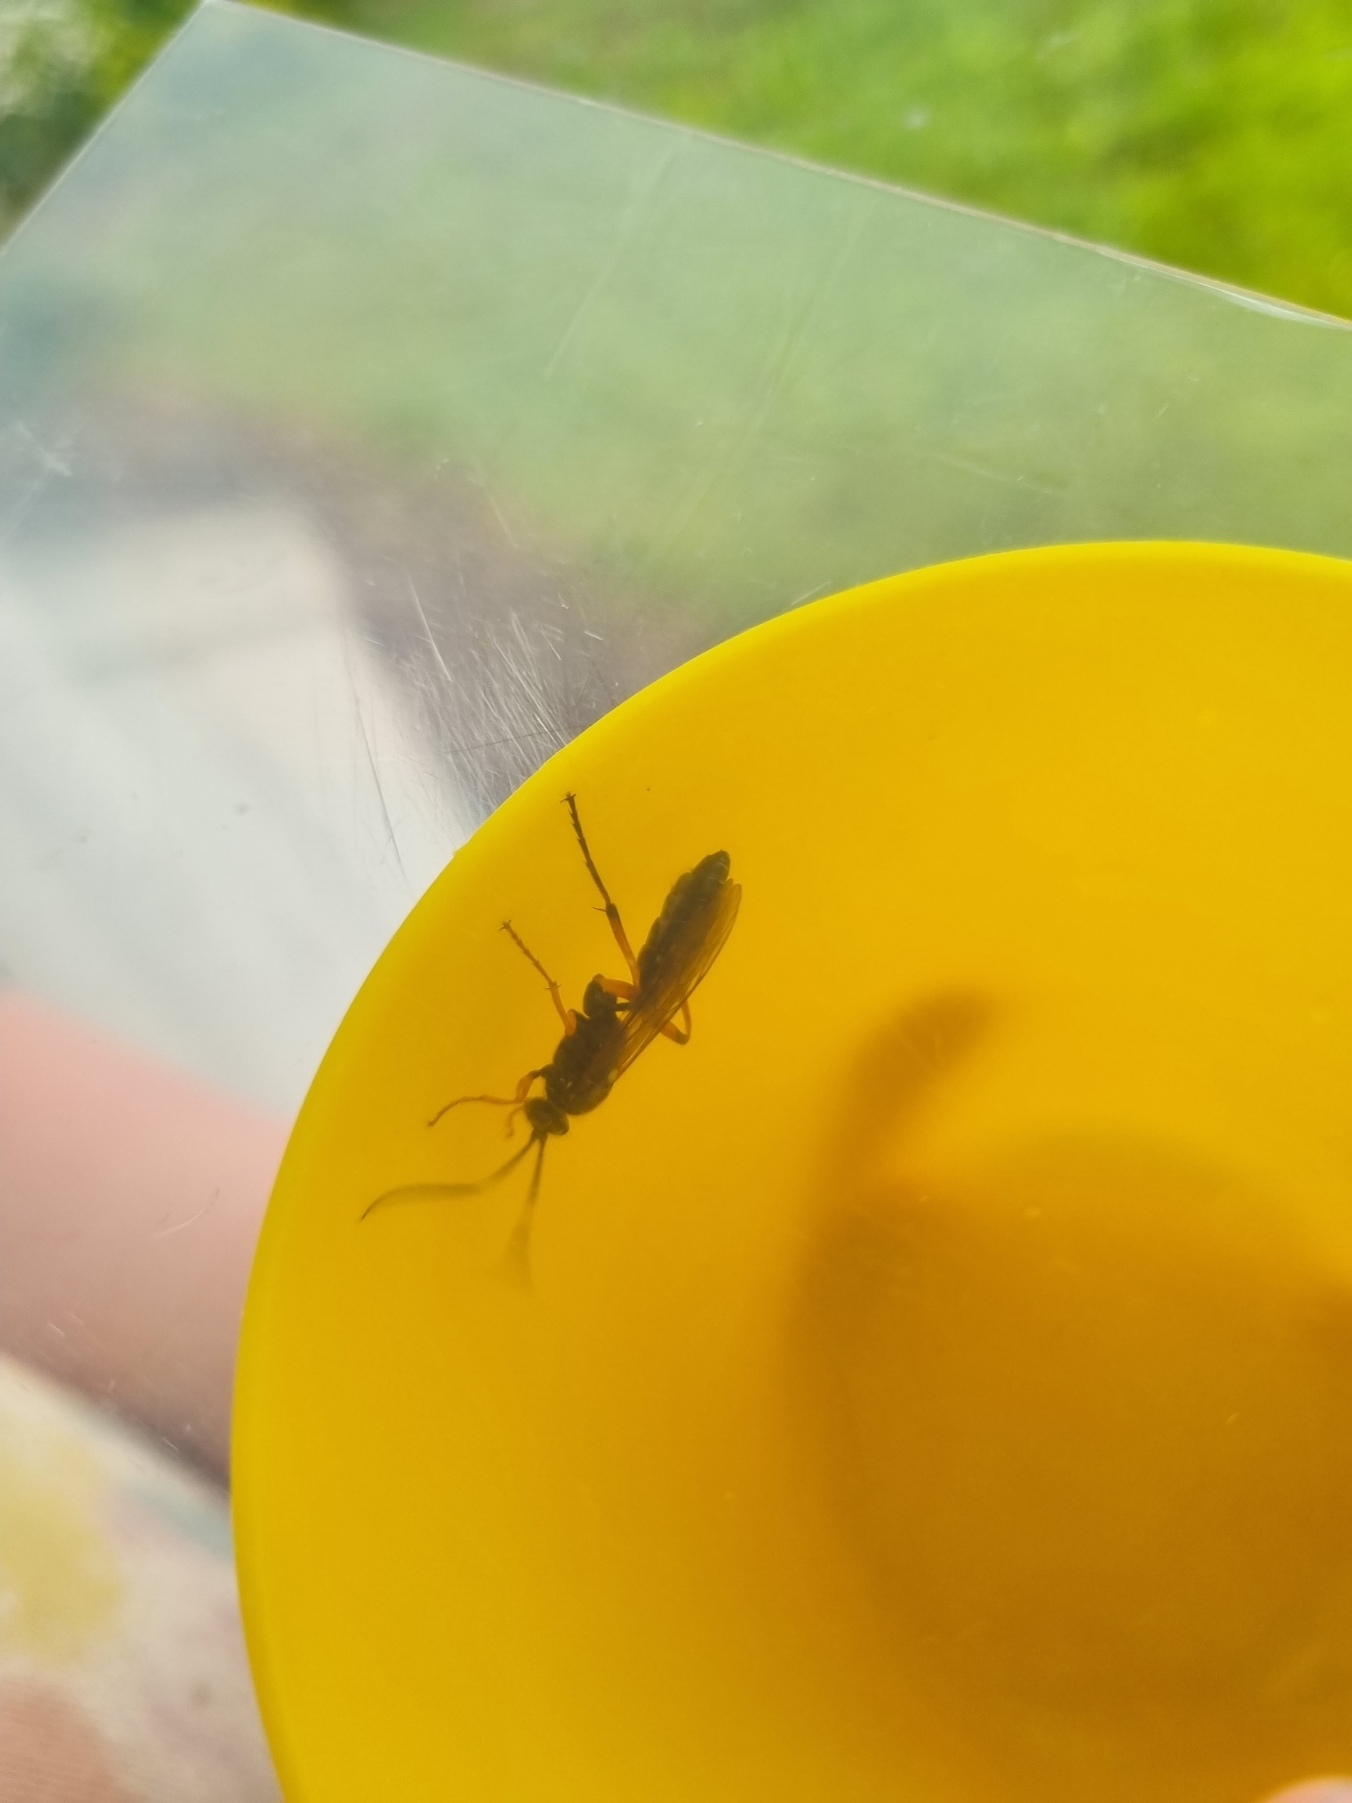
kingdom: Animalia
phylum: Arthropoda
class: Insecta
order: Hymenoptera
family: Ichneumonidae
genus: Diphyus
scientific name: Diphyus quadripunctorius
